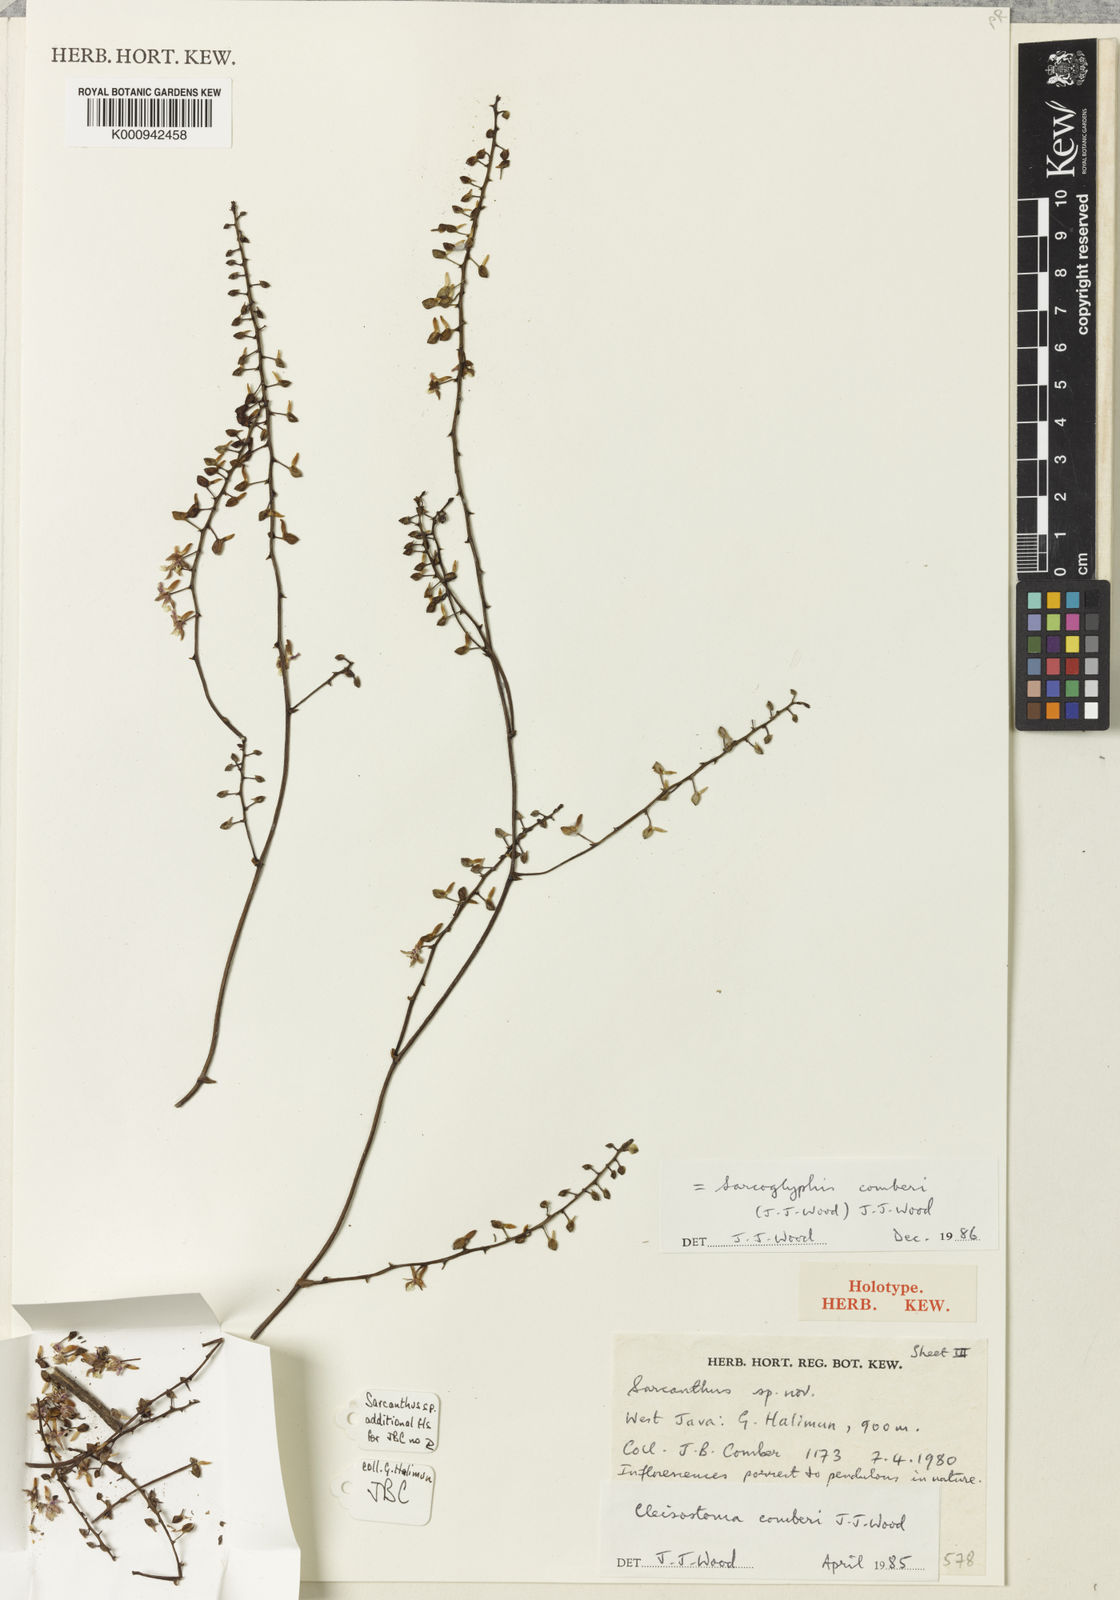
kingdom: Plantae
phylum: Tracheophyta
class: Liliopsida
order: Asparagales
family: Orchidaceae
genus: Sarcoglyphis
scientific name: Sarcoglyphis comberi
